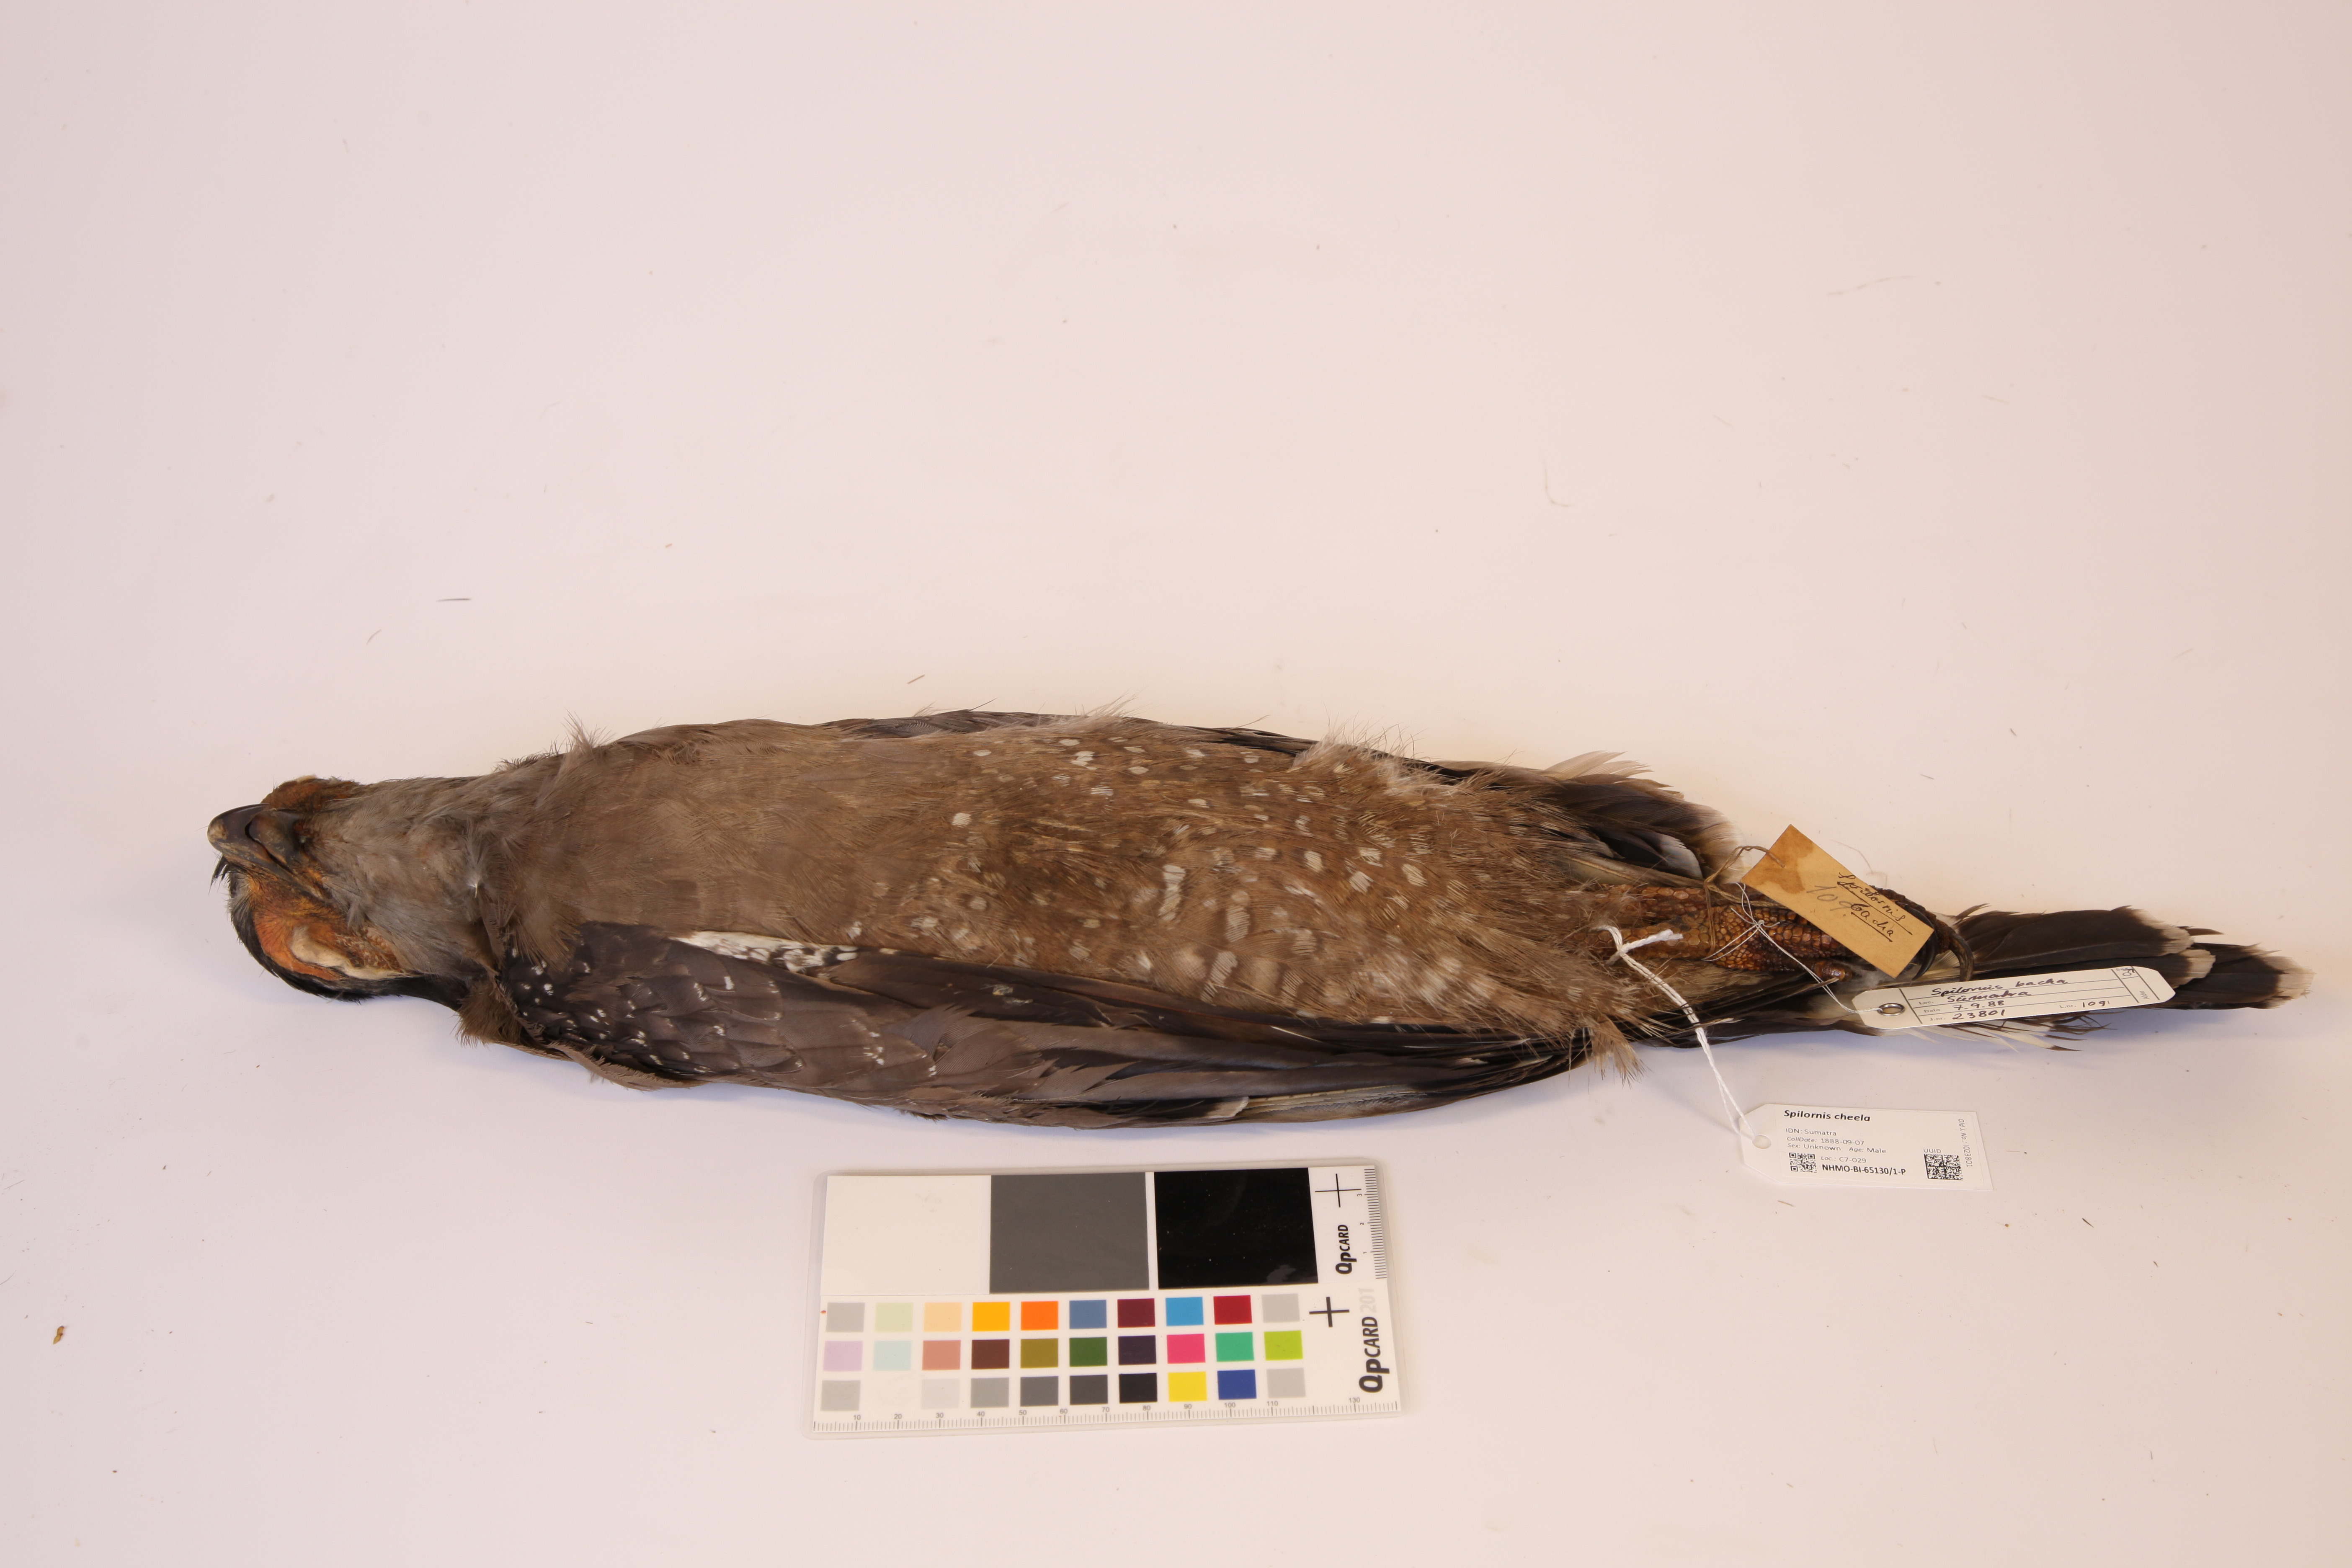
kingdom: Animalia
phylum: Chordata
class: Aves
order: Accipitriformes
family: Accipitridae
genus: Spilornis
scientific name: Spilornis cheela
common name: Crested serpent eagle
